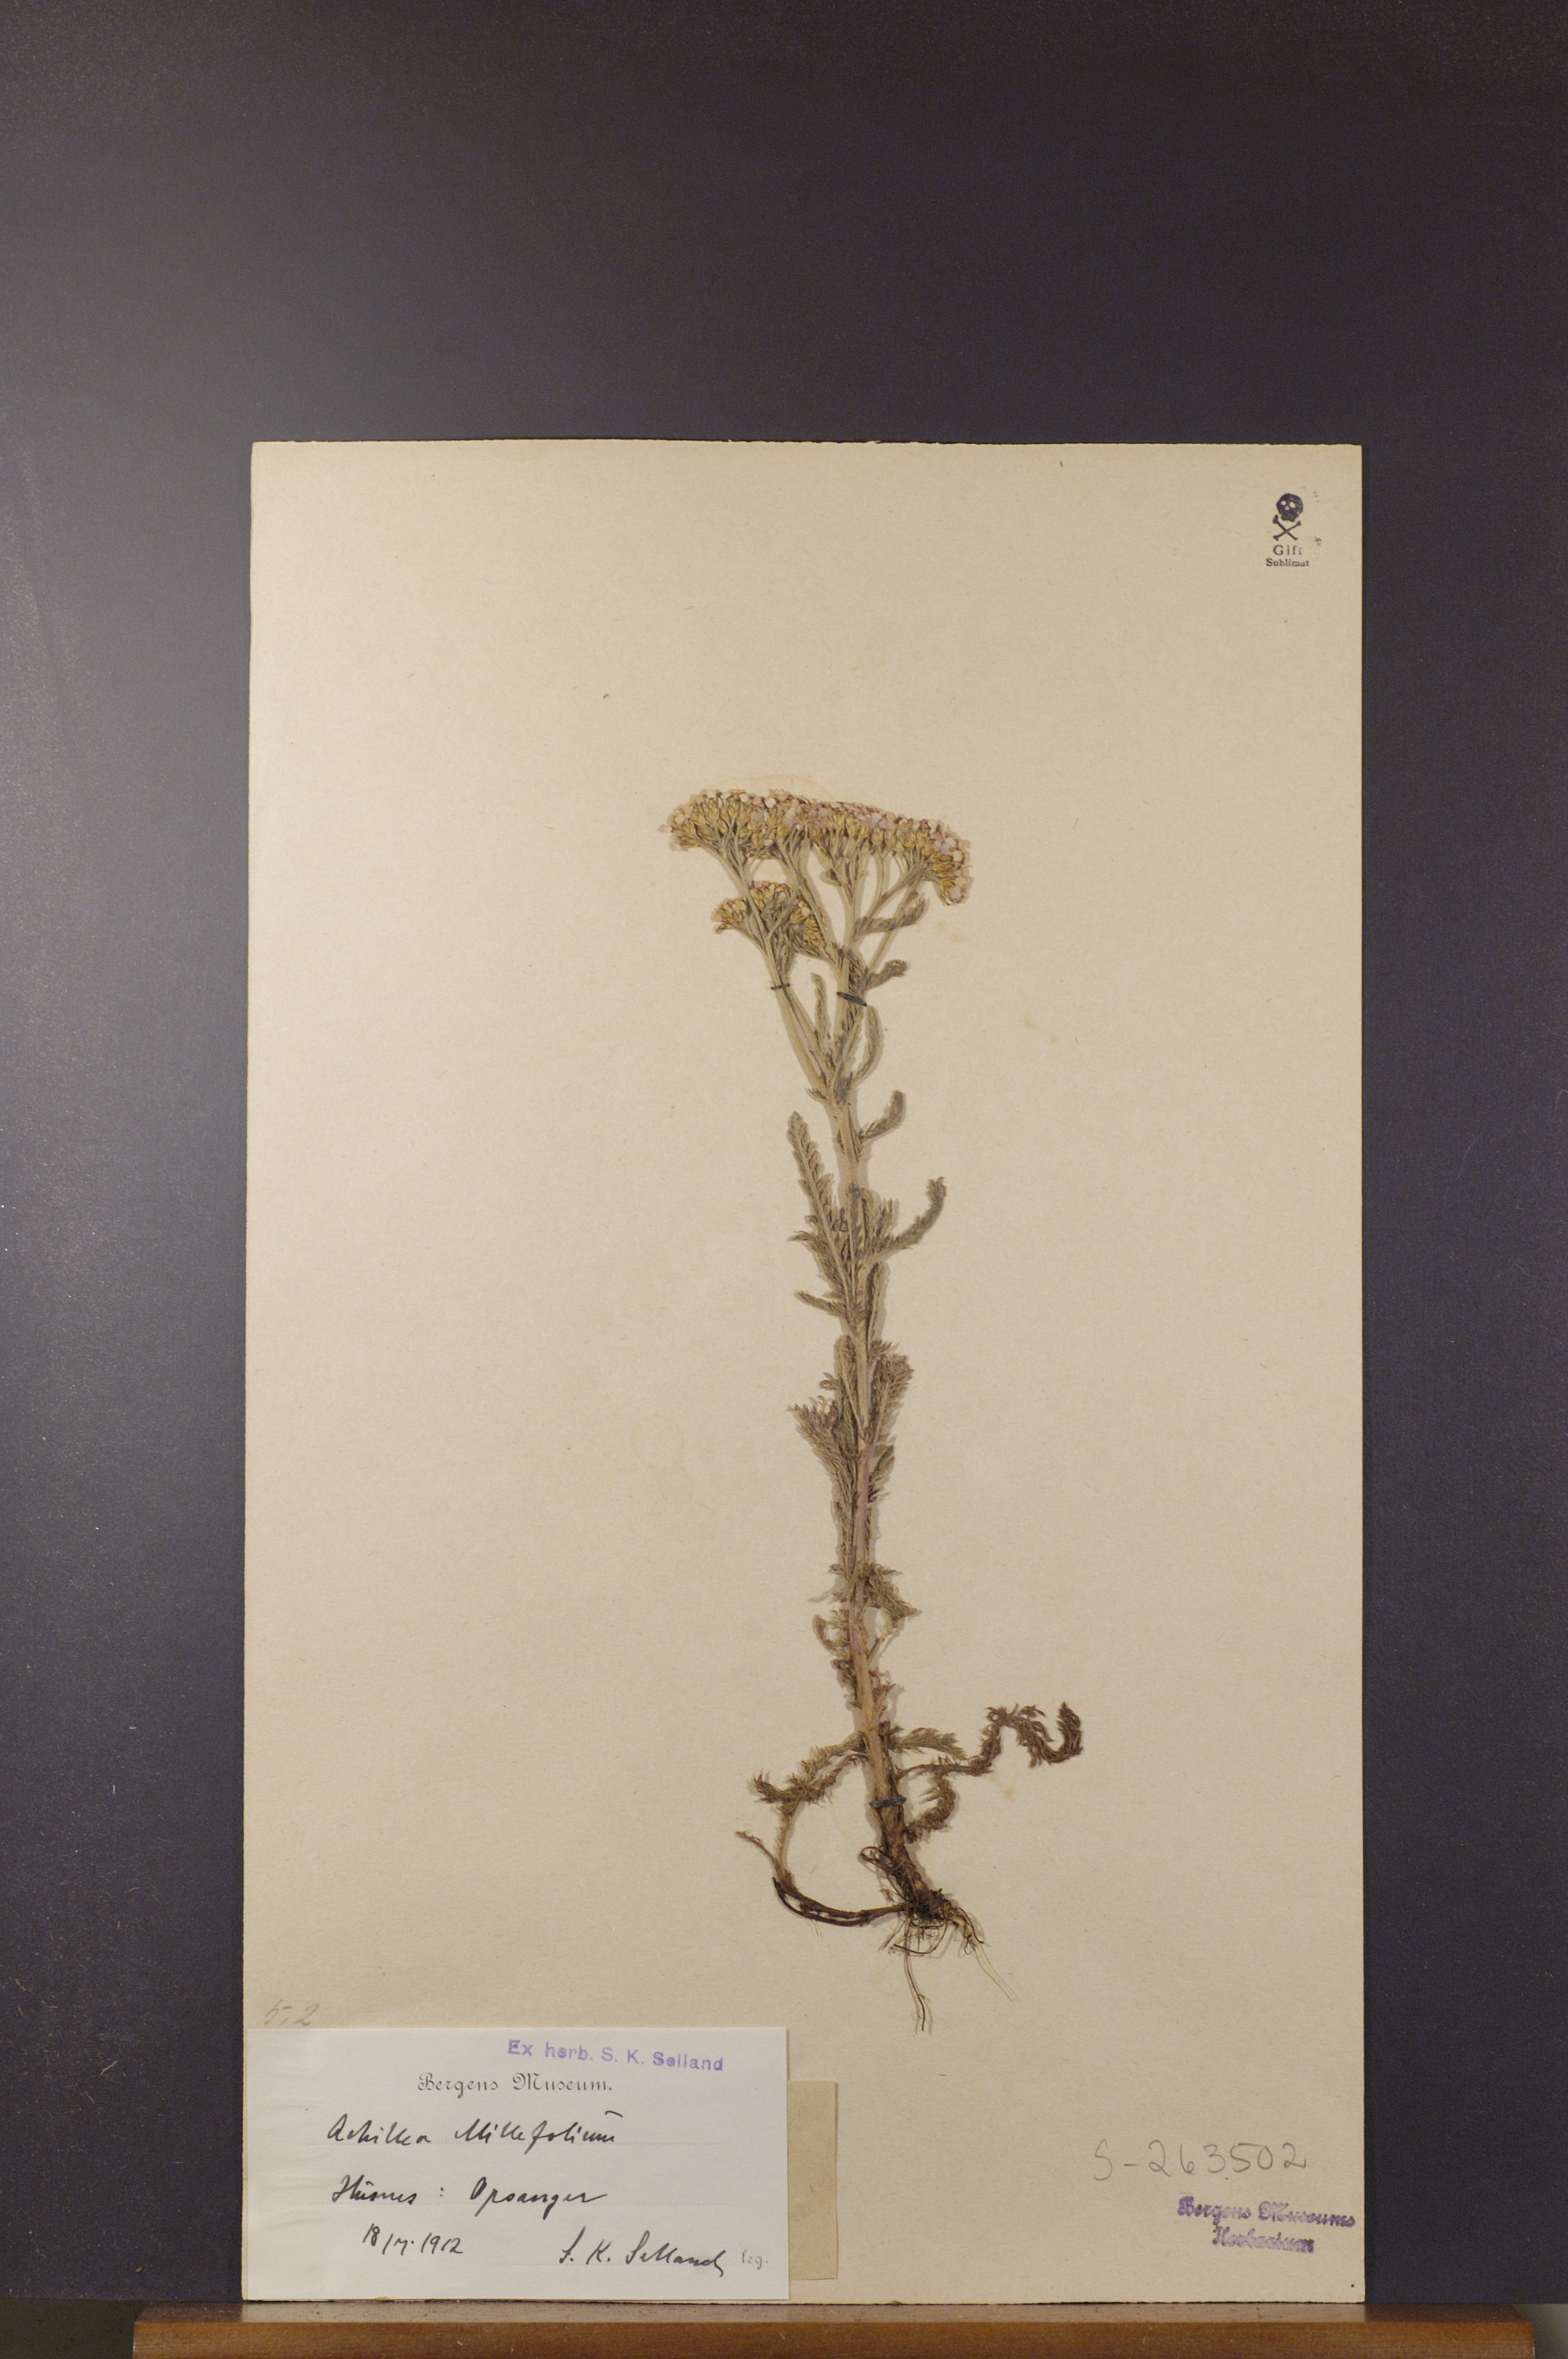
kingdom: Plantae
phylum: Tracheophyta
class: Magnoliopsida
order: Asterales
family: Asteraceae
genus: Achillea
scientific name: Achillea millefolium
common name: Yarrow
